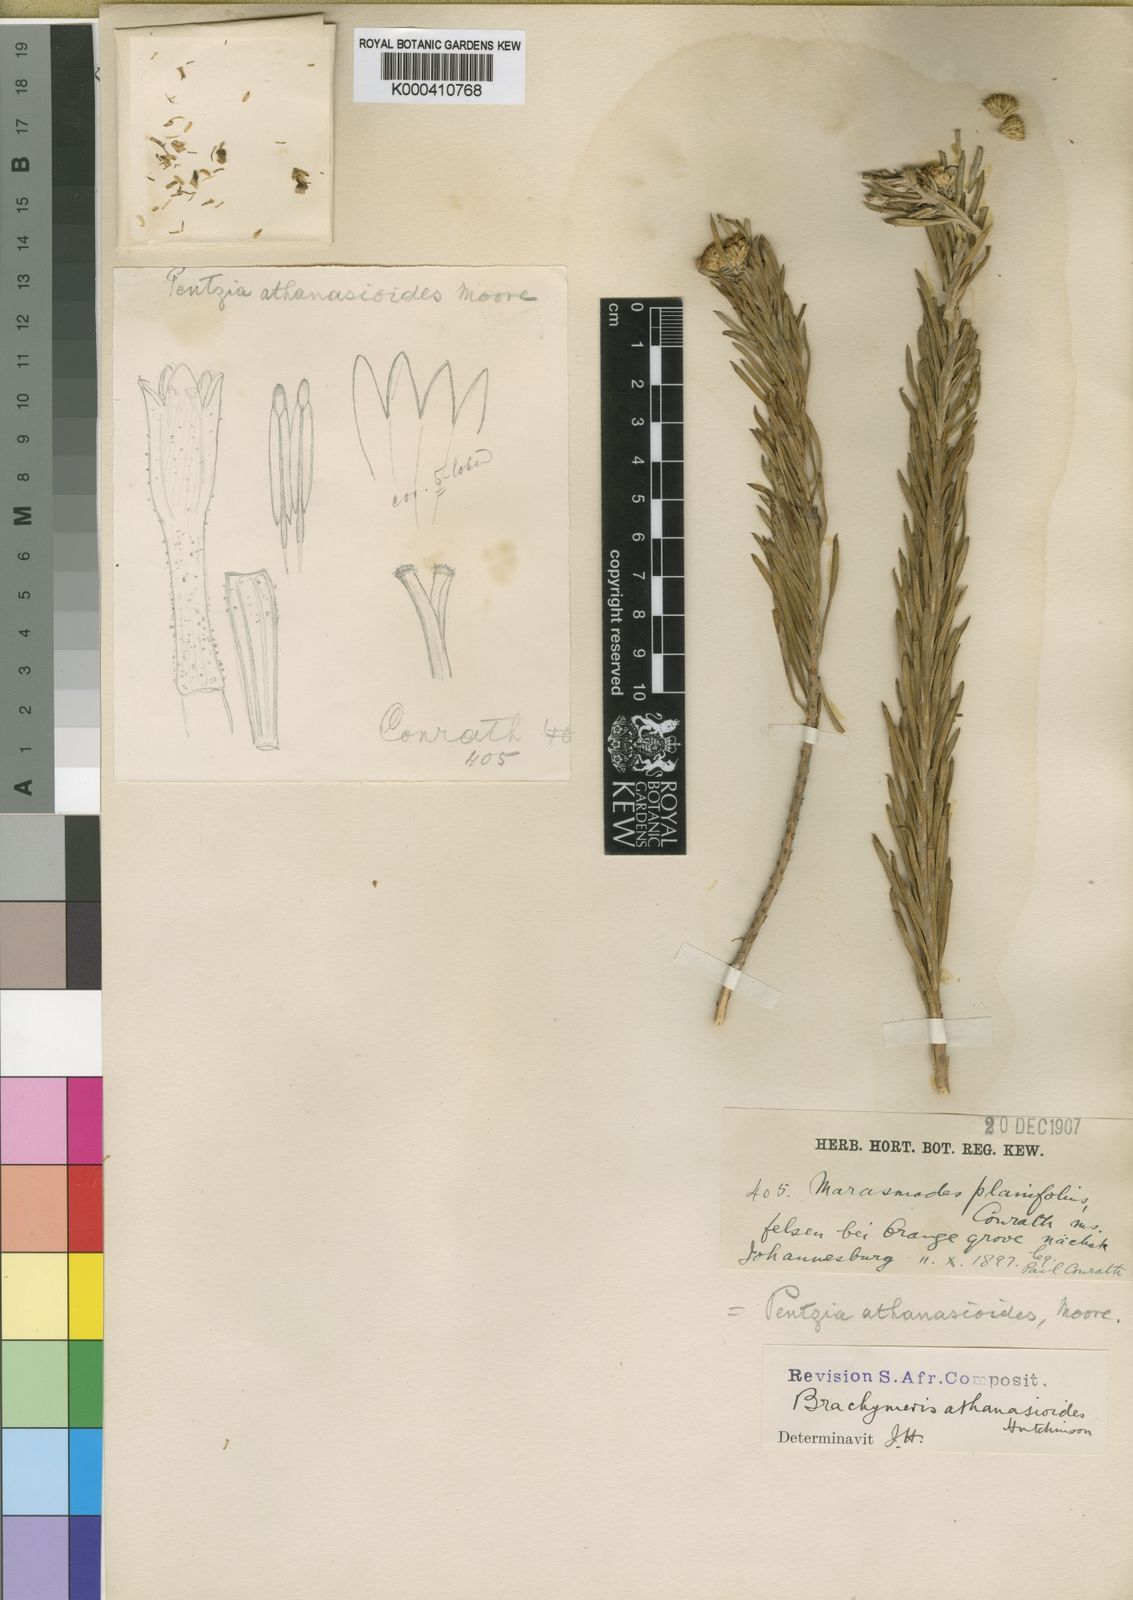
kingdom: Plantae
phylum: Tracheophyta
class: Magnoliopsida
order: Asterales
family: Asteraceae
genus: Phymaspermum
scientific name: Phymaspermum
